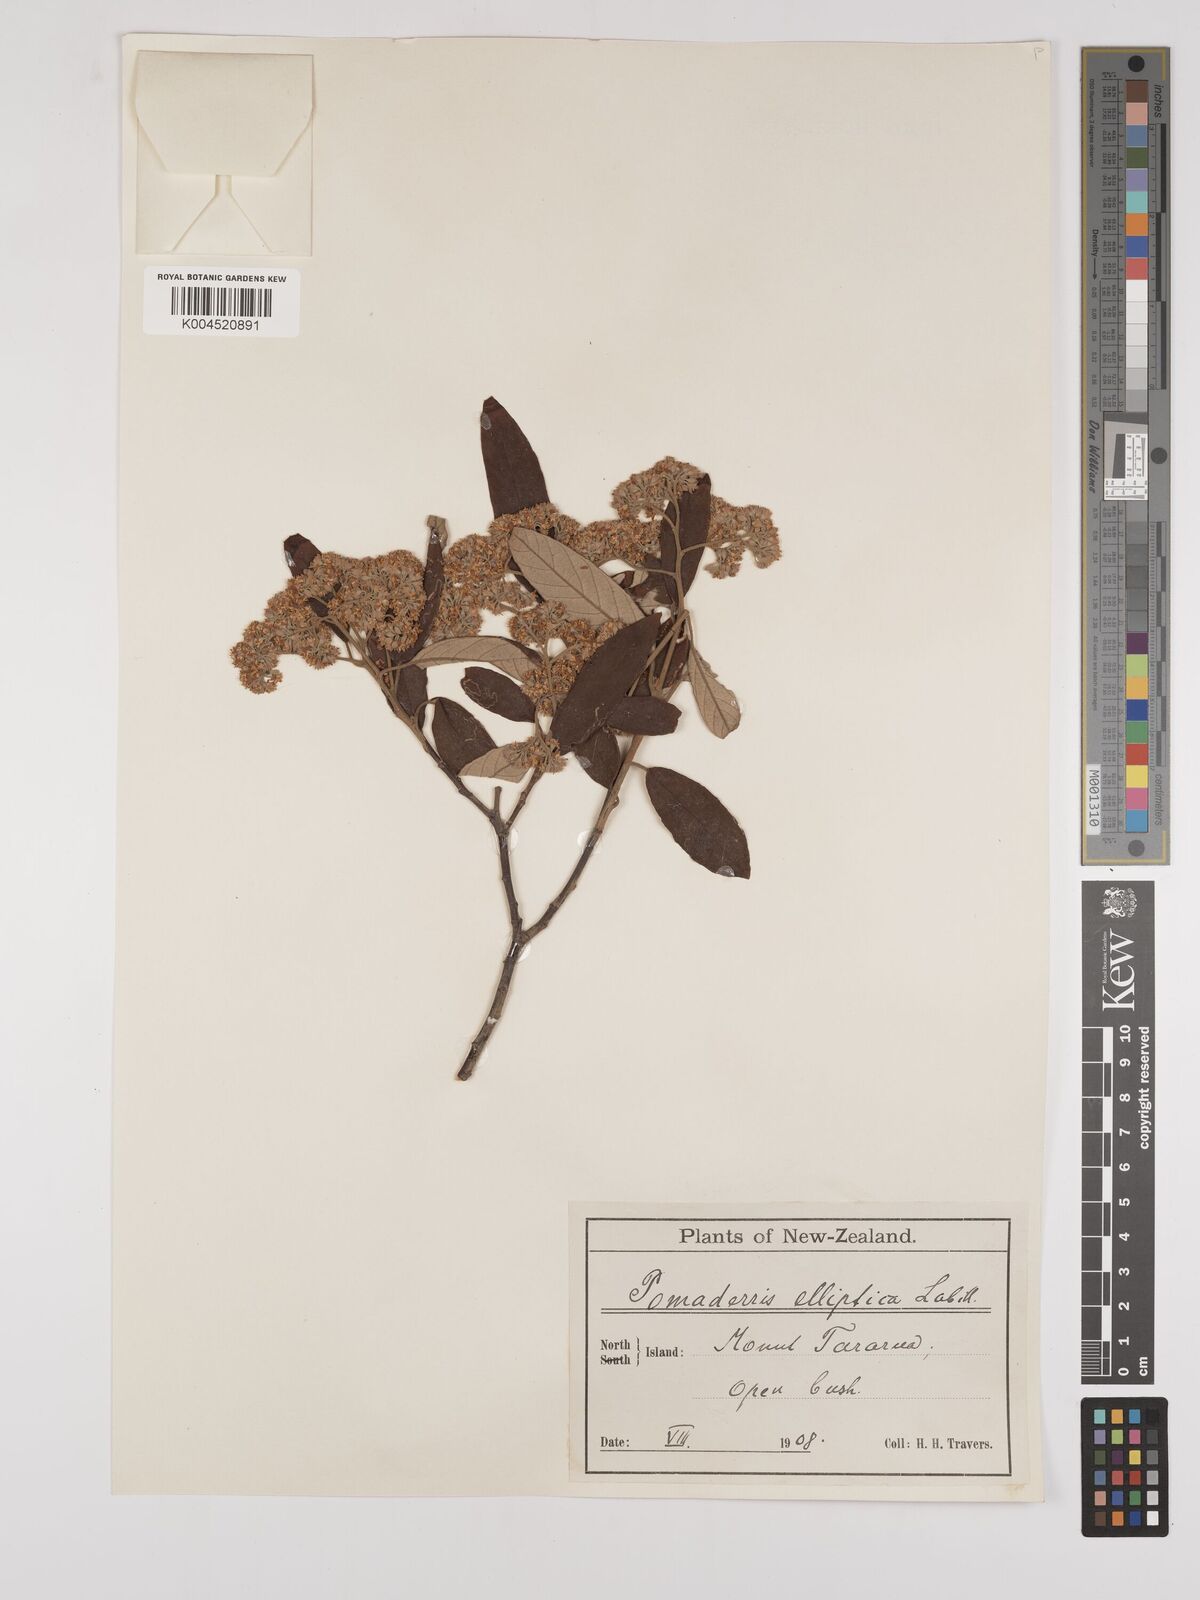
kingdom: Plantae
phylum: Tracheophyta
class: Magnoliopsida
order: Rosales
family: Rhamnaceae
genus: Pomaderris
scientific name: Pomaderris kumeraho
